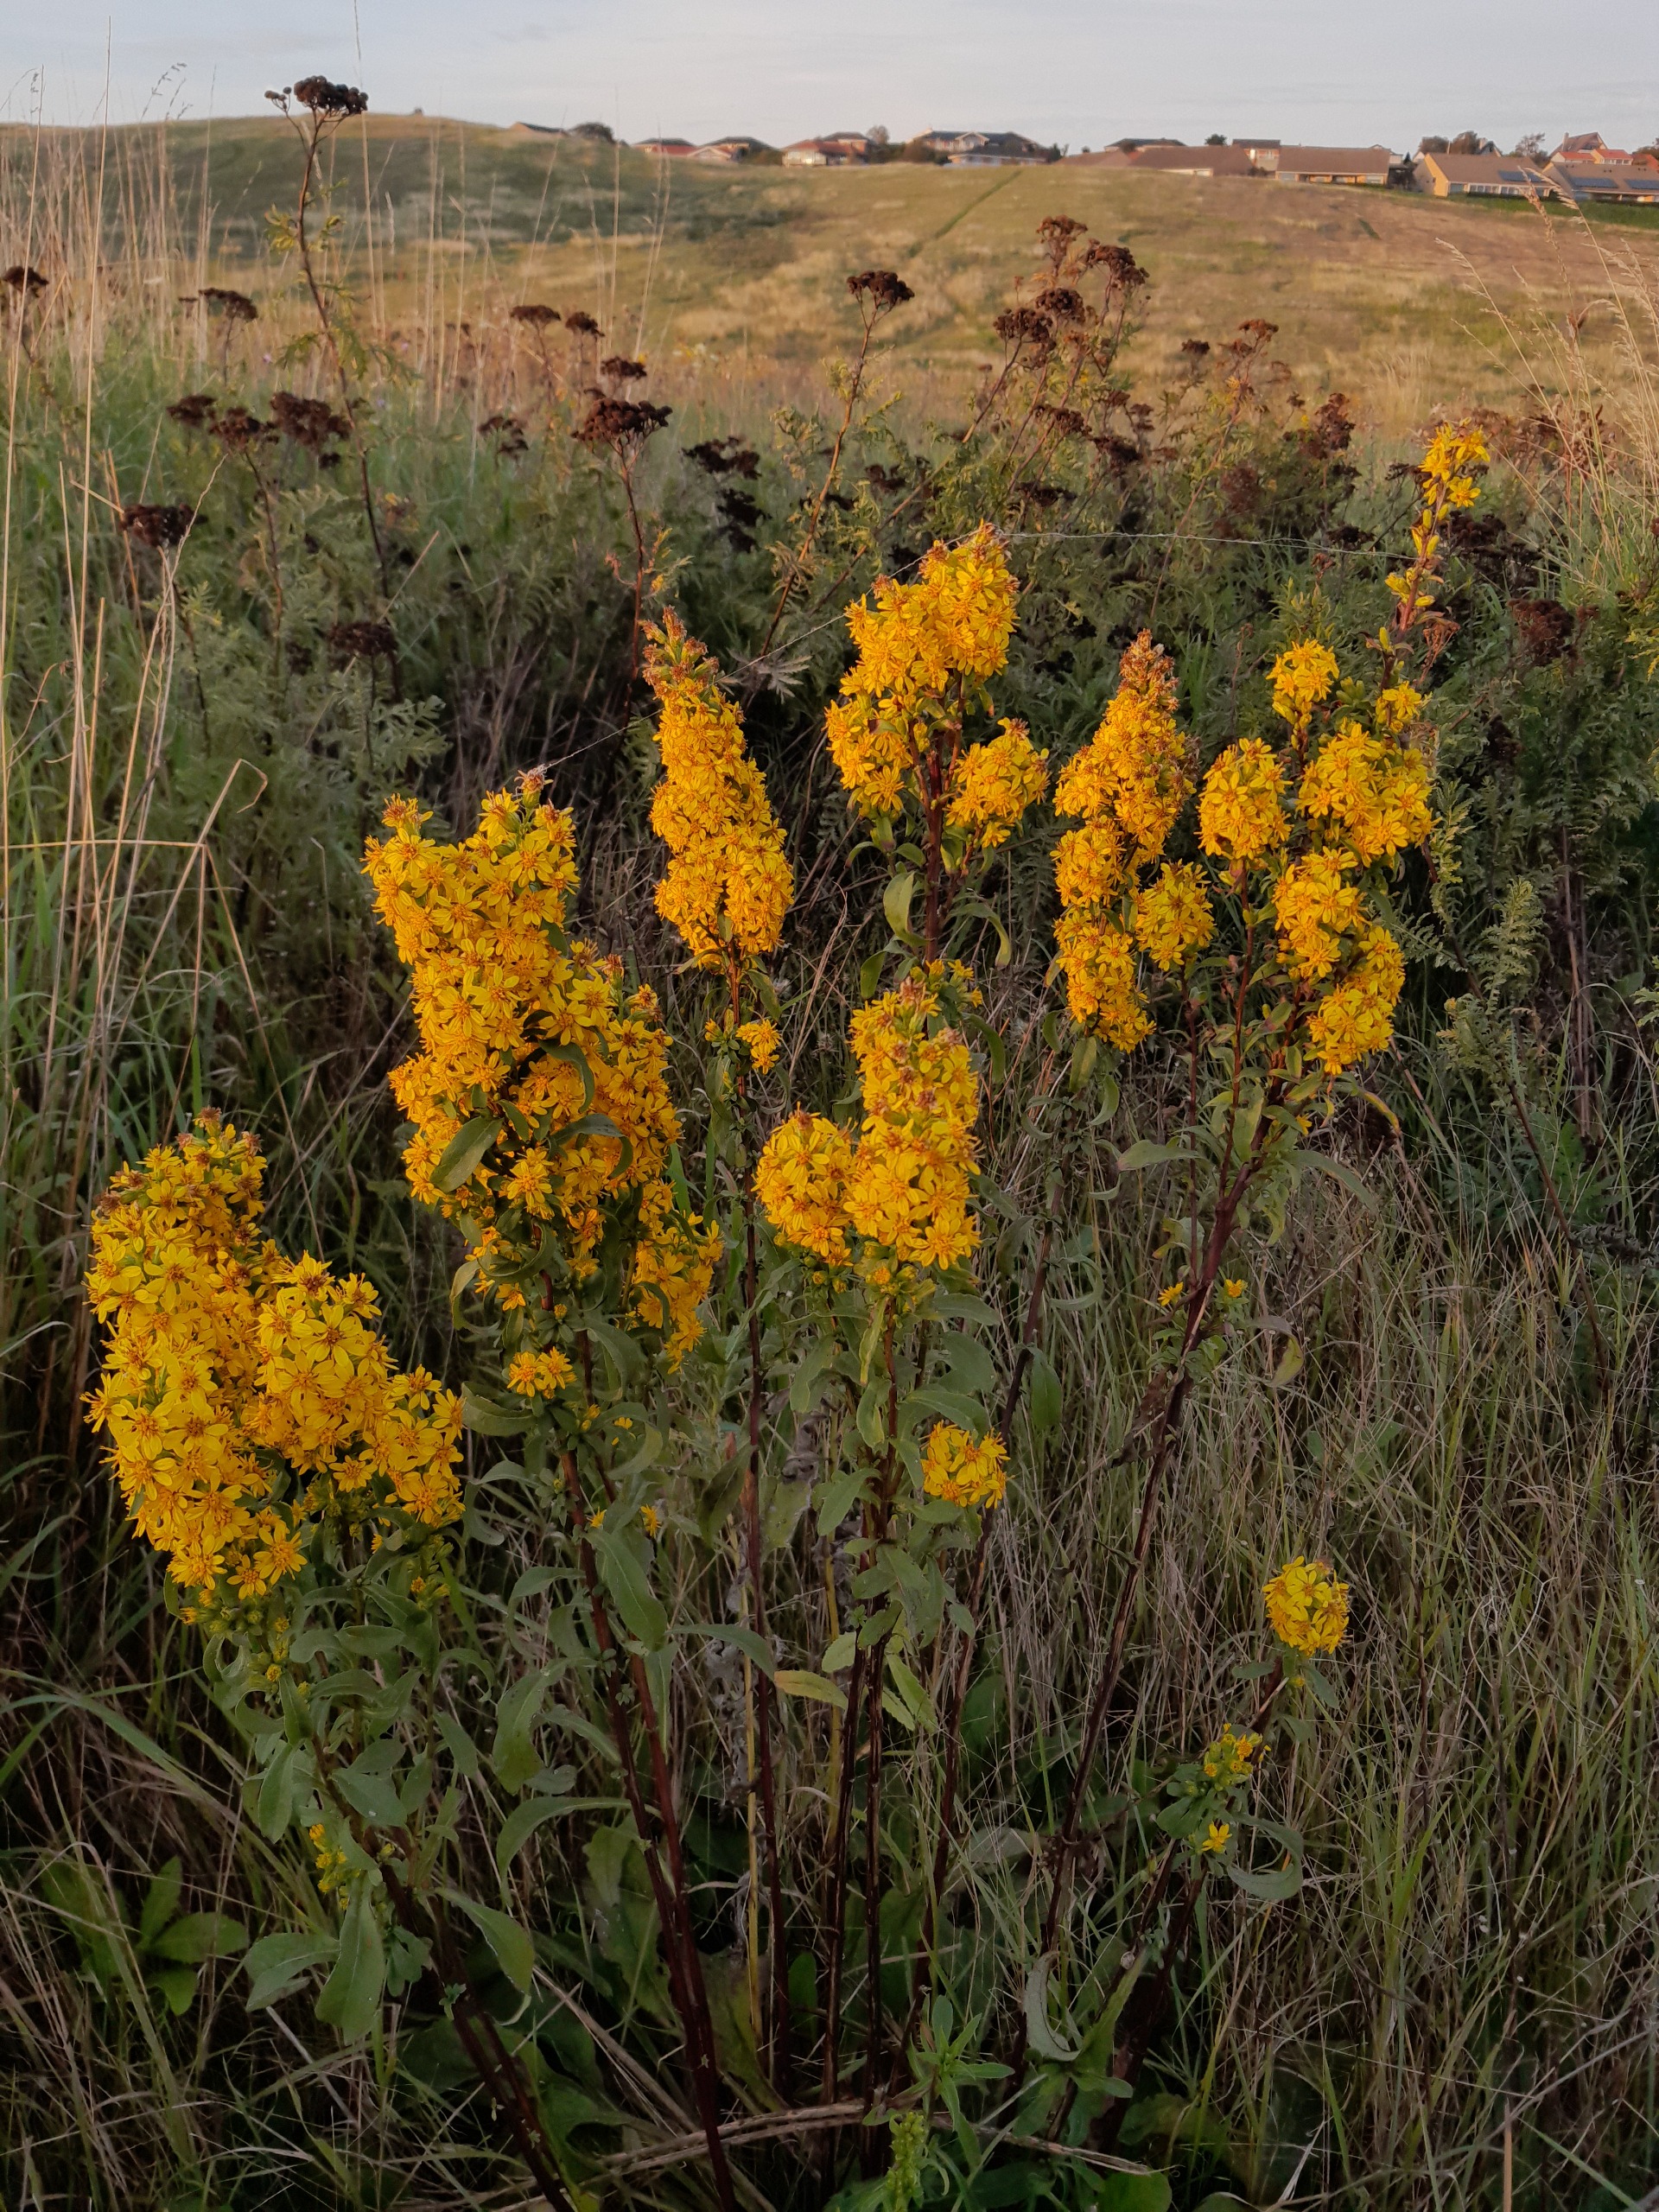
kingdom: Plantae
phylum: Tracheophyta
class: Magnoliopsida
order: Asterales
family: Asteraceae
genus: Solidago
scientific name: Solidago virgaurea
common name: Almindelig gyldenris
